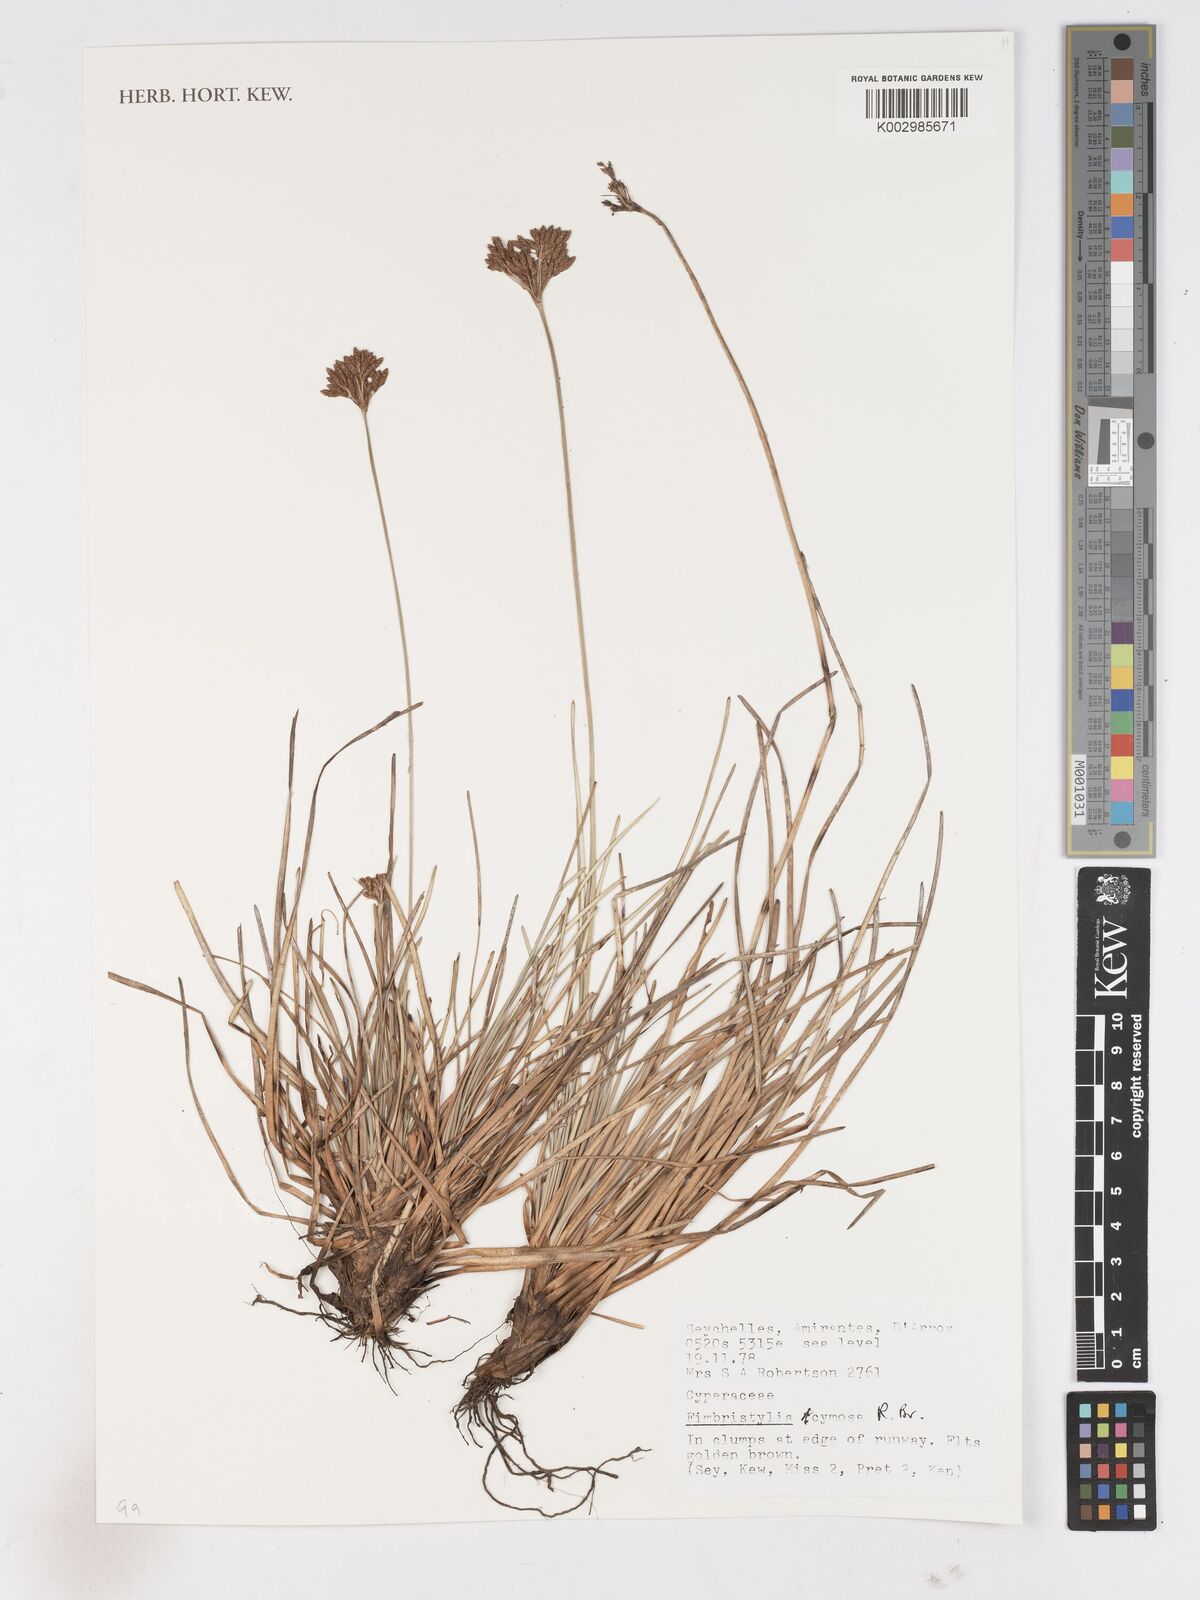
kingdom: Plantae
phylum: Tracheophyta
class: Liliopsida
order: Poales
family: Cyperaceae
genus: Fimbristylis
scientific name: Fimbristylis cymosa
